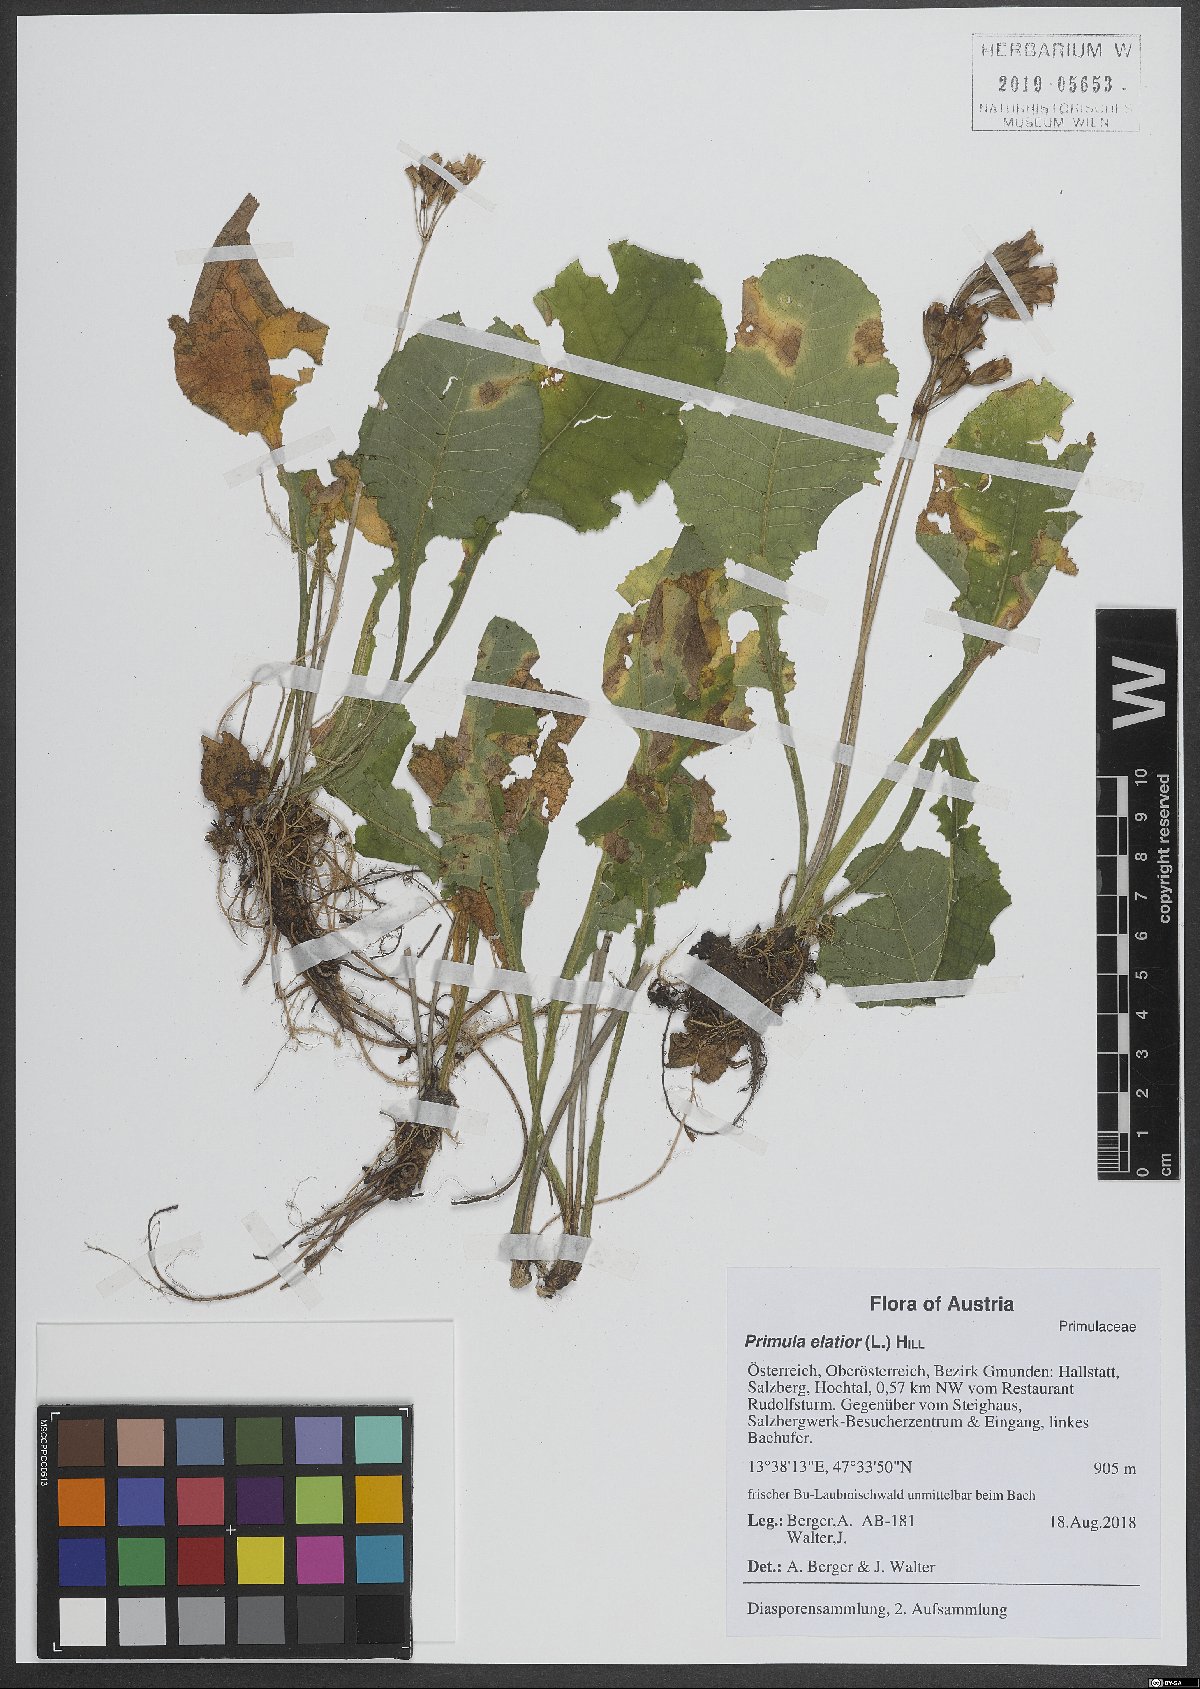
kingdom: Plantae
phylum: Tracheophyta
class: Magnoliopsida
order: Ericales
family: Primulaceae
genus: Primula
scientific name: Primula elatior
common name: Oxlip
